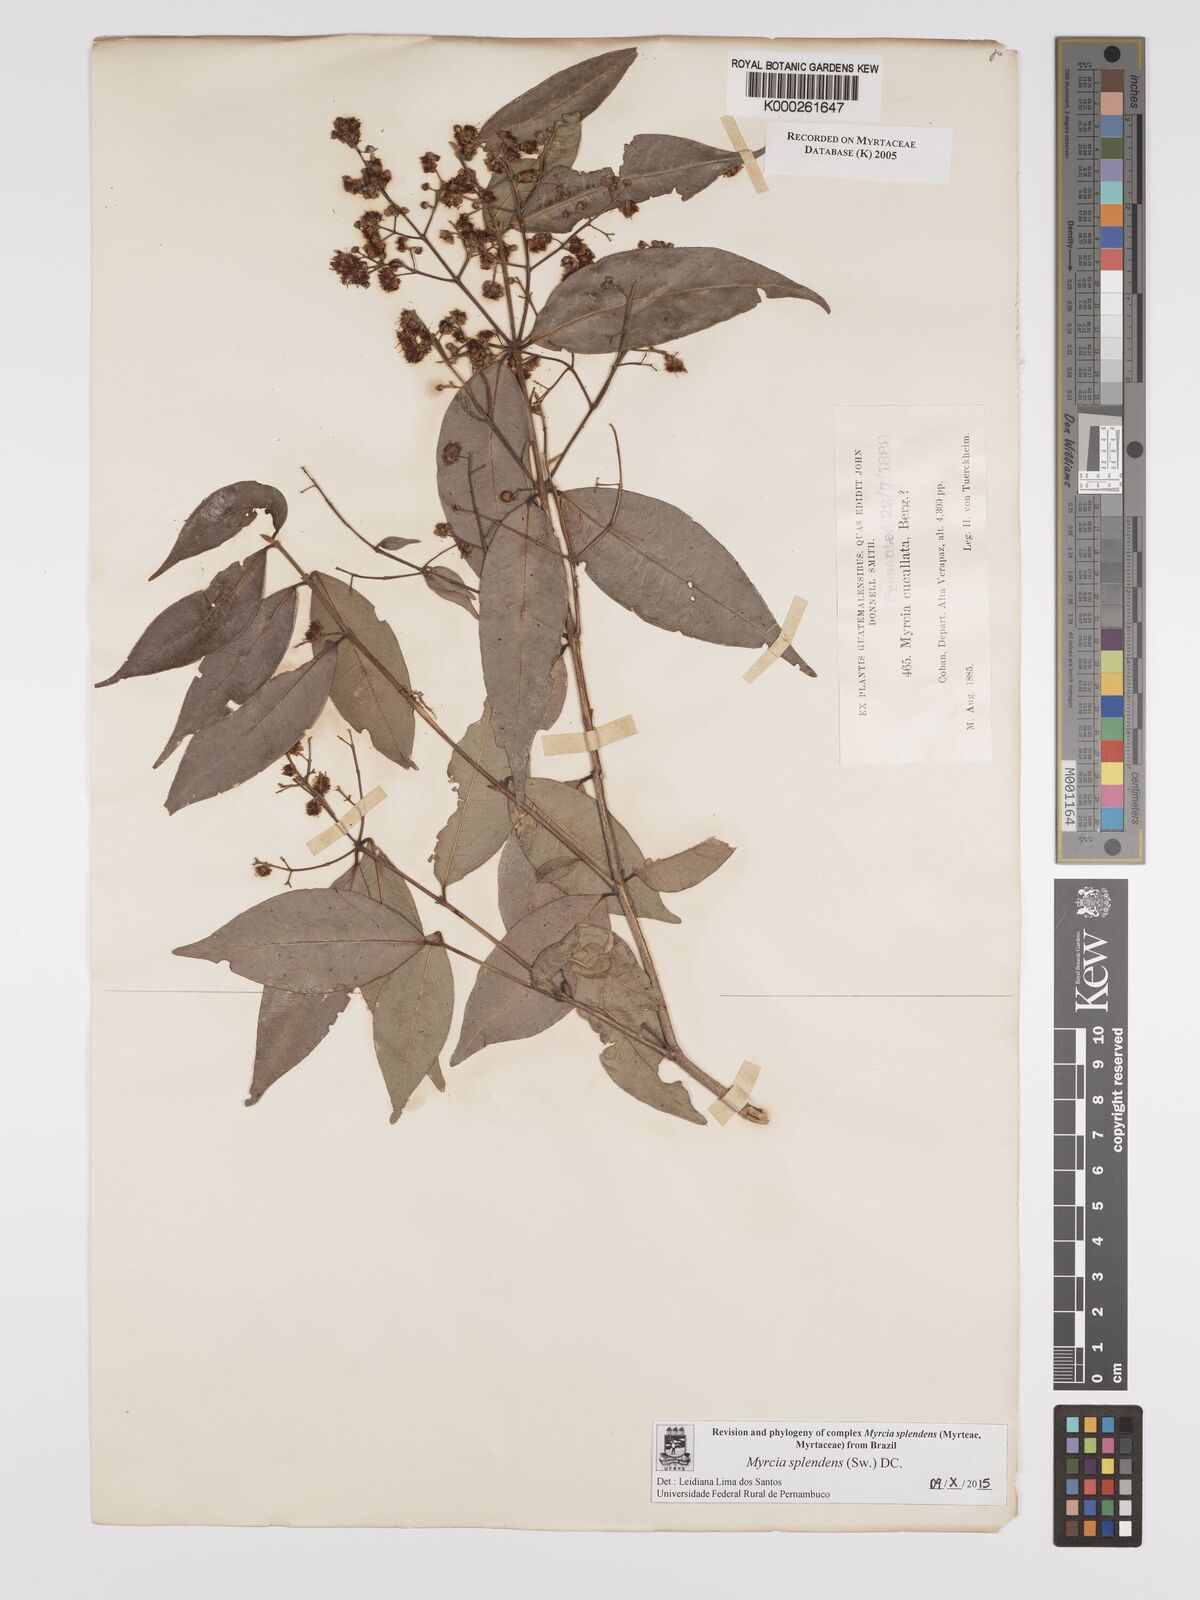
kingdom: Plantae
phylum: Tracheophyta
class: Magnoliopsida
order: Myrtales
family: Myrtaceae
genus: Myrcia
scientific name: Myrcia cucullata
